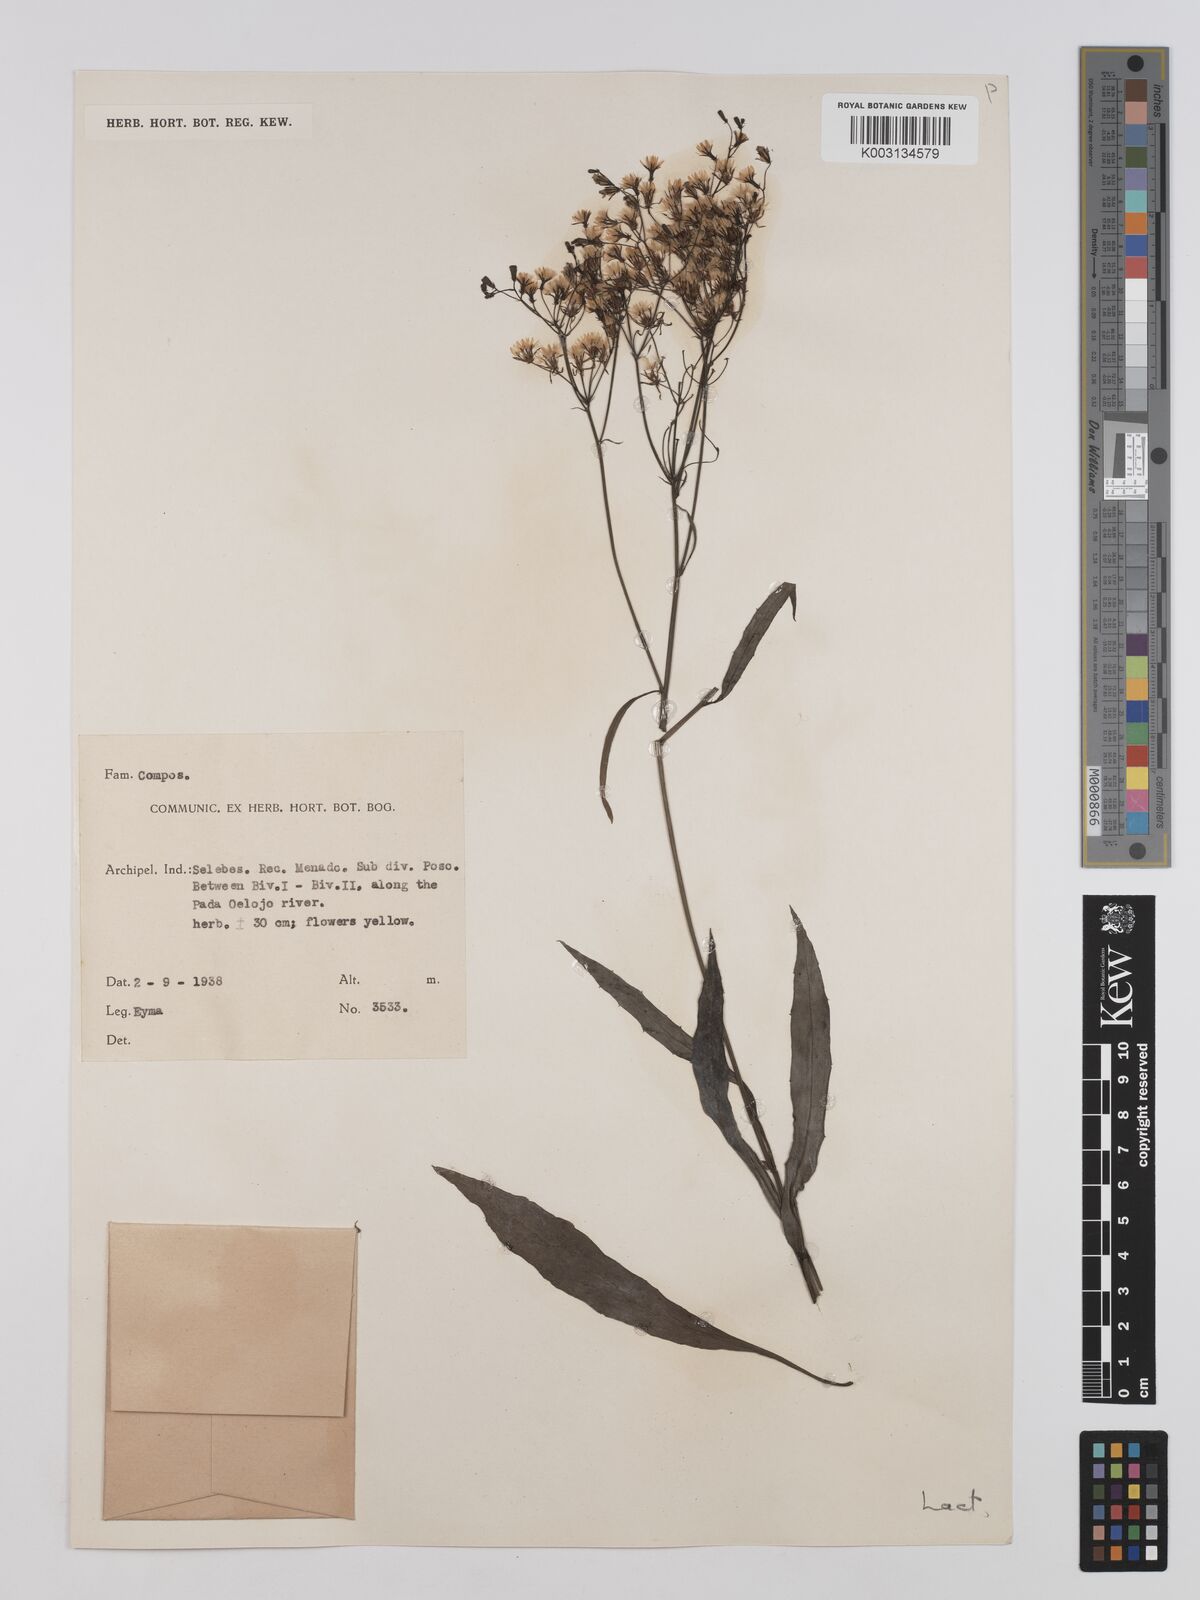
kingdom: Plantae
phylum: Tracheophyta
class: Magnoliopsida
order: Asterales
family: Asteraceae
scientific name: Asteraceae
